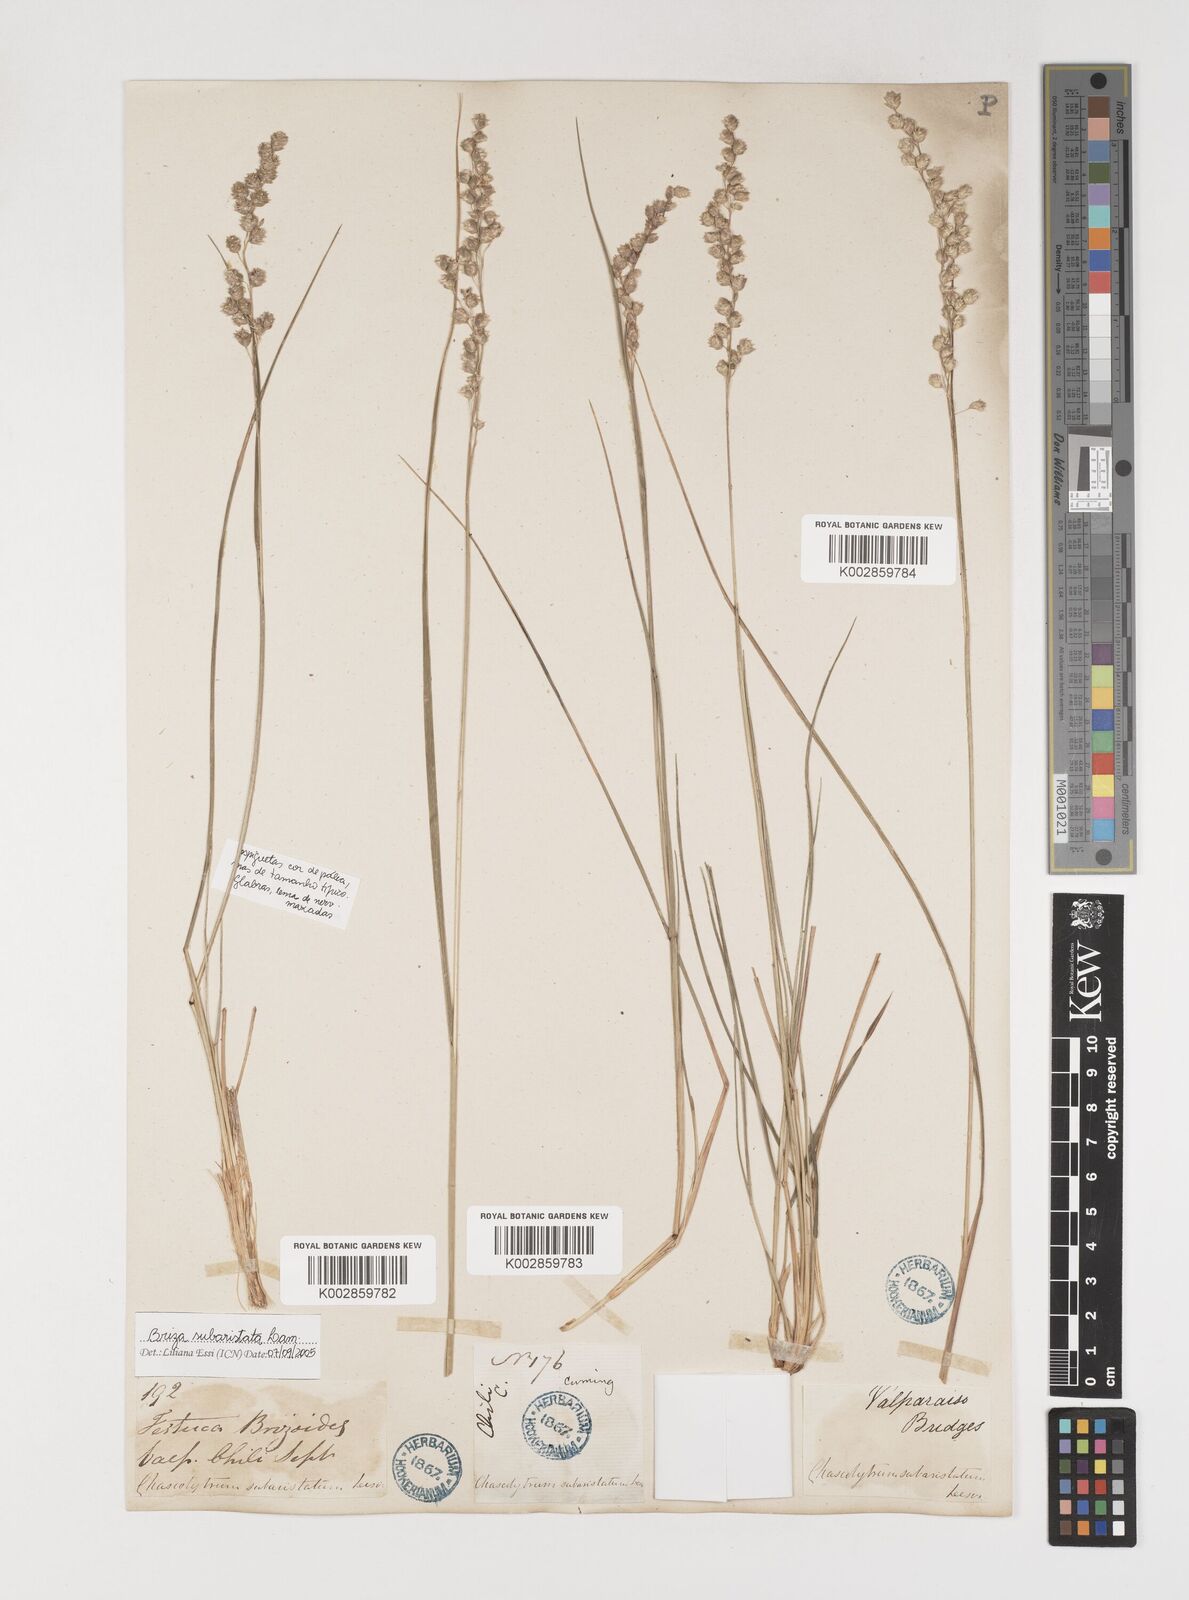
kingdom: Plantae
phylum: Tracheophyta
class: Liliopsida
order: Poales
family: Poaceae
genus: Chascolytrum
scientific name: Chascolytrum subaristatum
